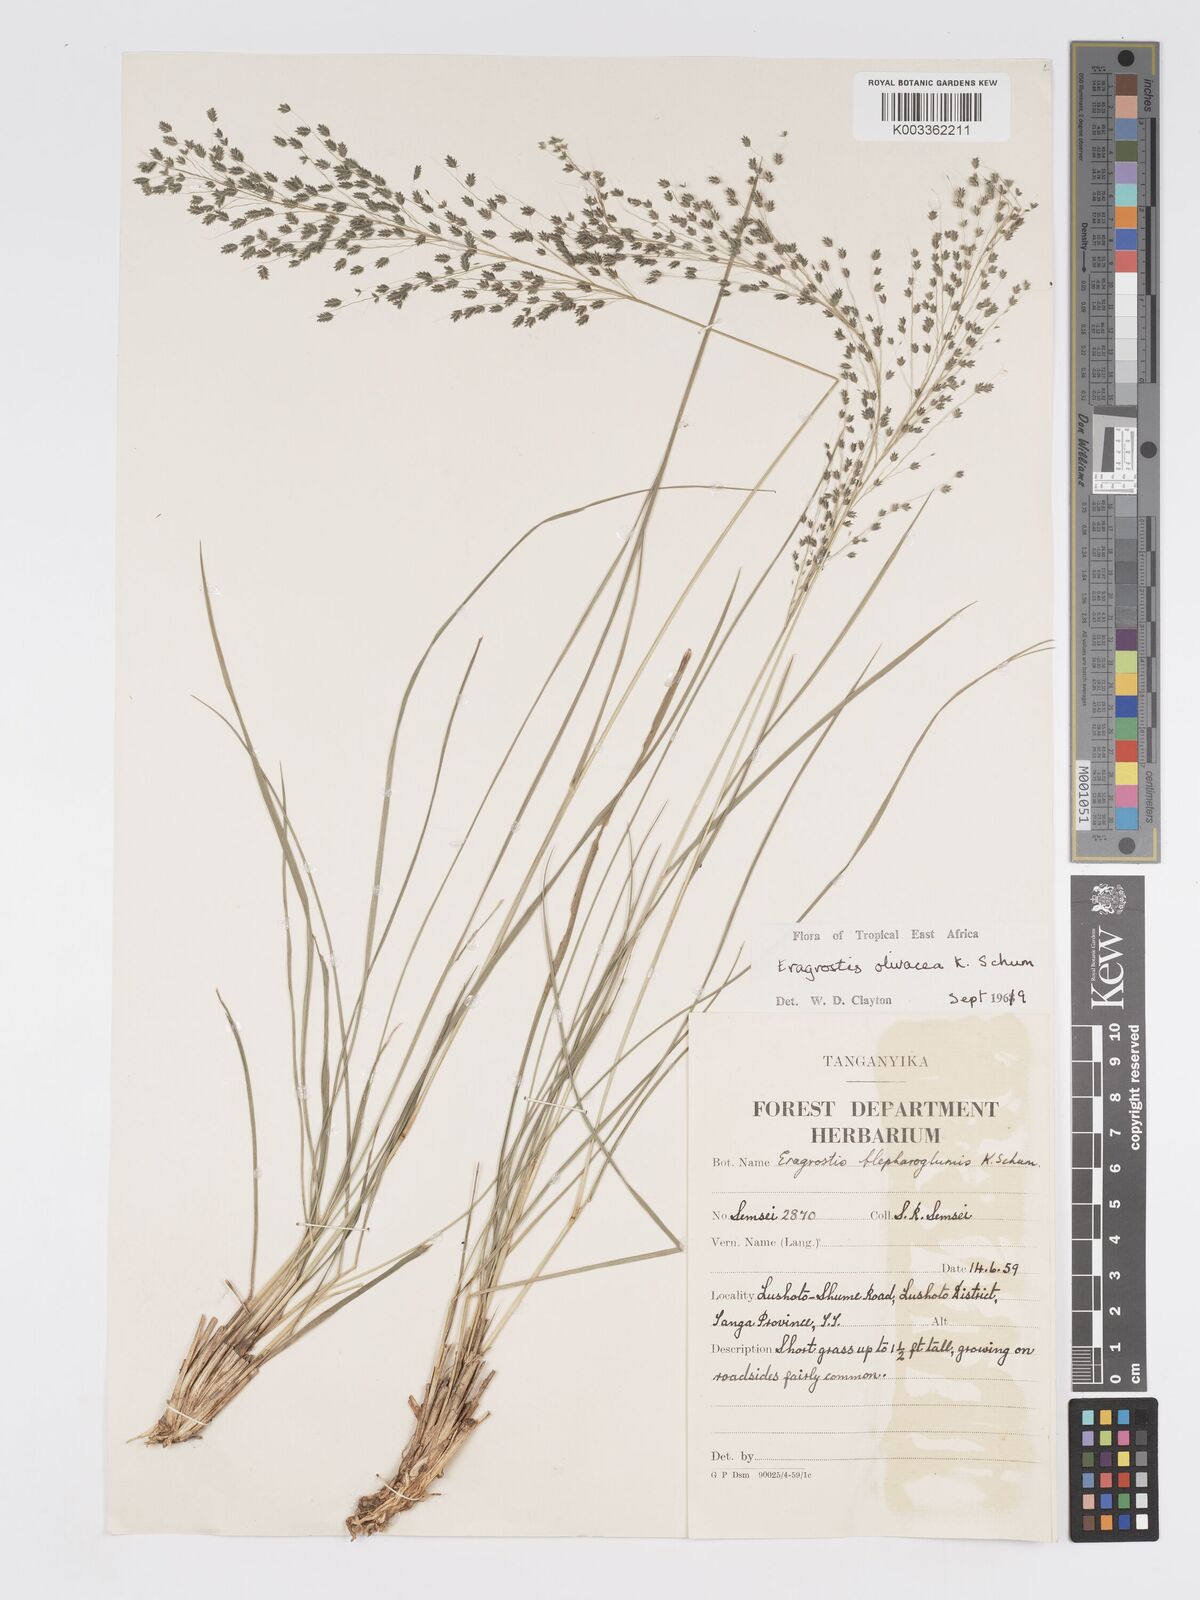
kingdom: Plantae
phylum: Tracheophyta
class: Liliopsida
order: Poales
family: Poaceae
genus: Eragrostis
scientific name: Eragrostis olivacea
